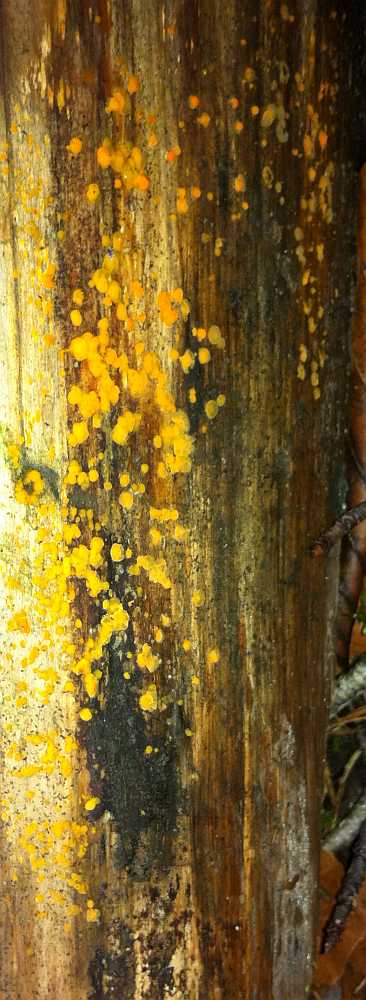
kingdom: Fungi
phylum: Basidiomycota
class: Dacrymycetes
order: Dacrymycetales
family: Dacrymycetaceae
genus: Dacrymyces
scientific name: Dacrymyces stillatus
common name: almindelig tåresvamp
